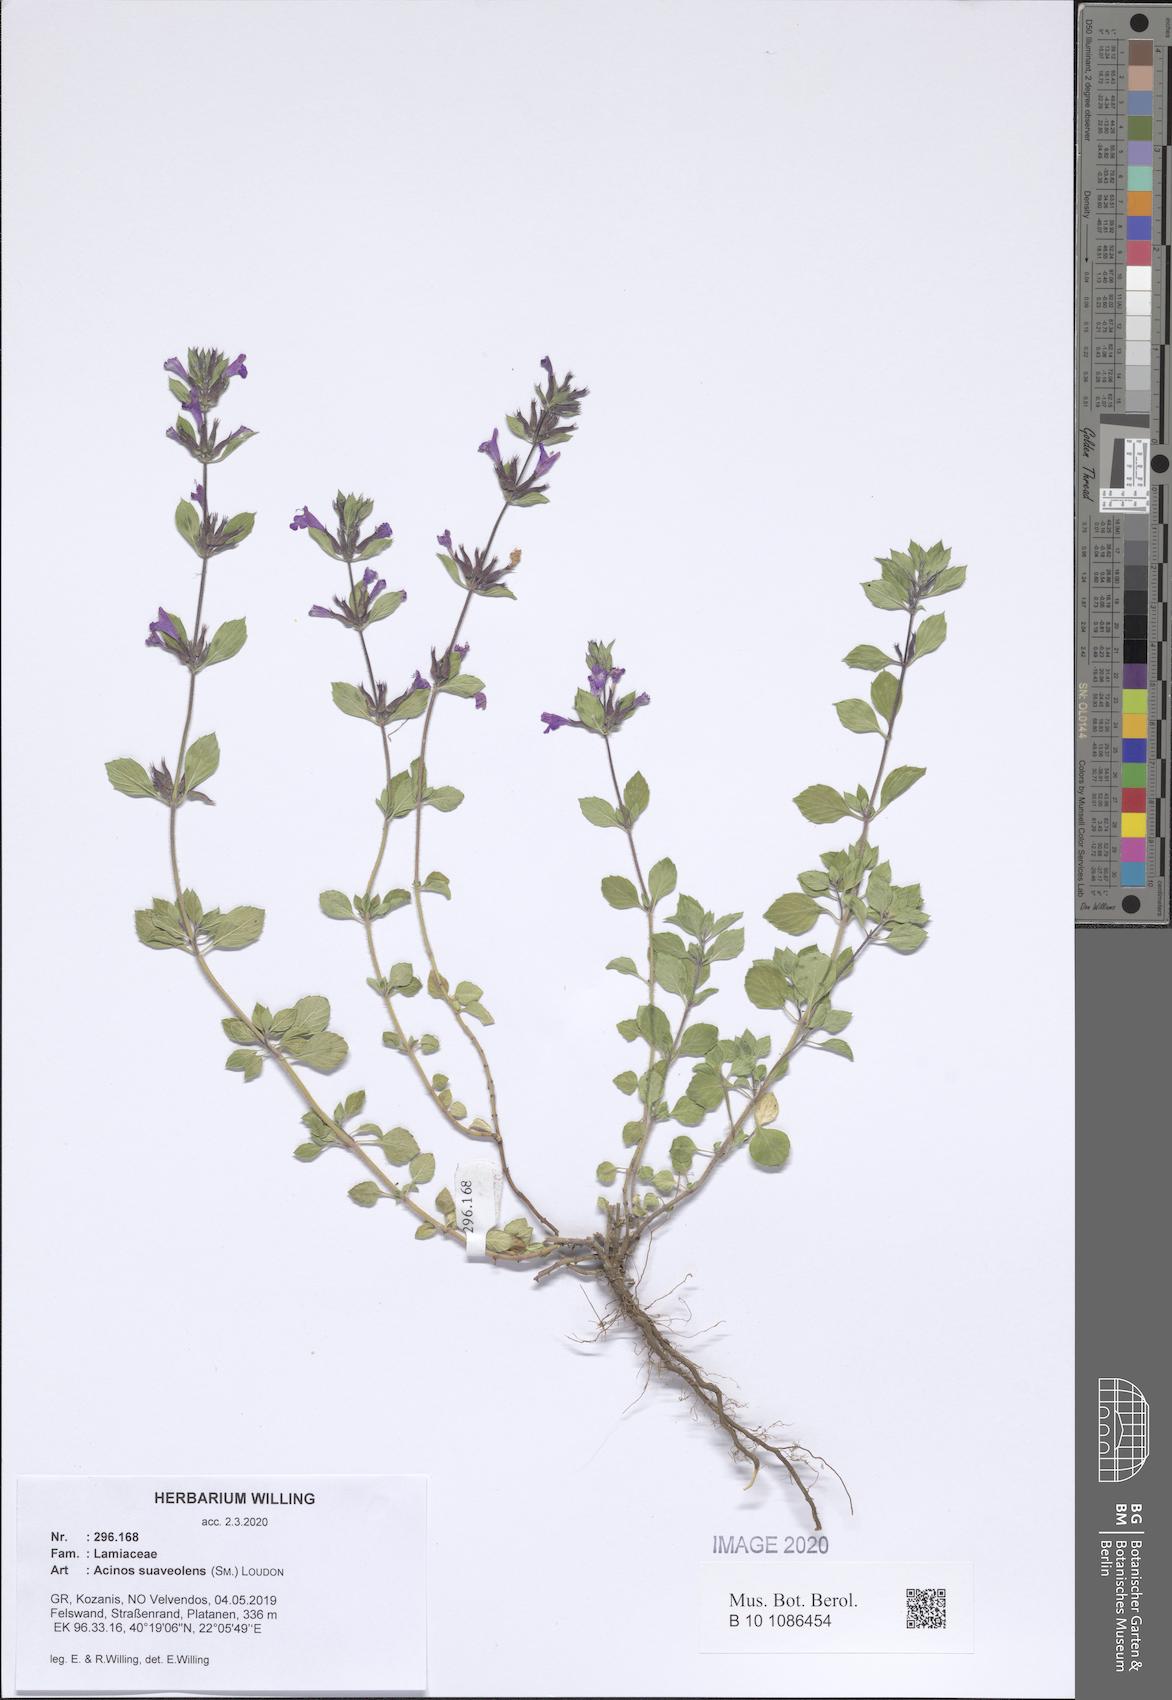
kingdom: Plantae
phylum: Tracheophyta
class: Magnoliopsida
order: Lamiales
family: Lamiaceae
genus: Clinopodium
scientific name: Clinopodium suaveolens
